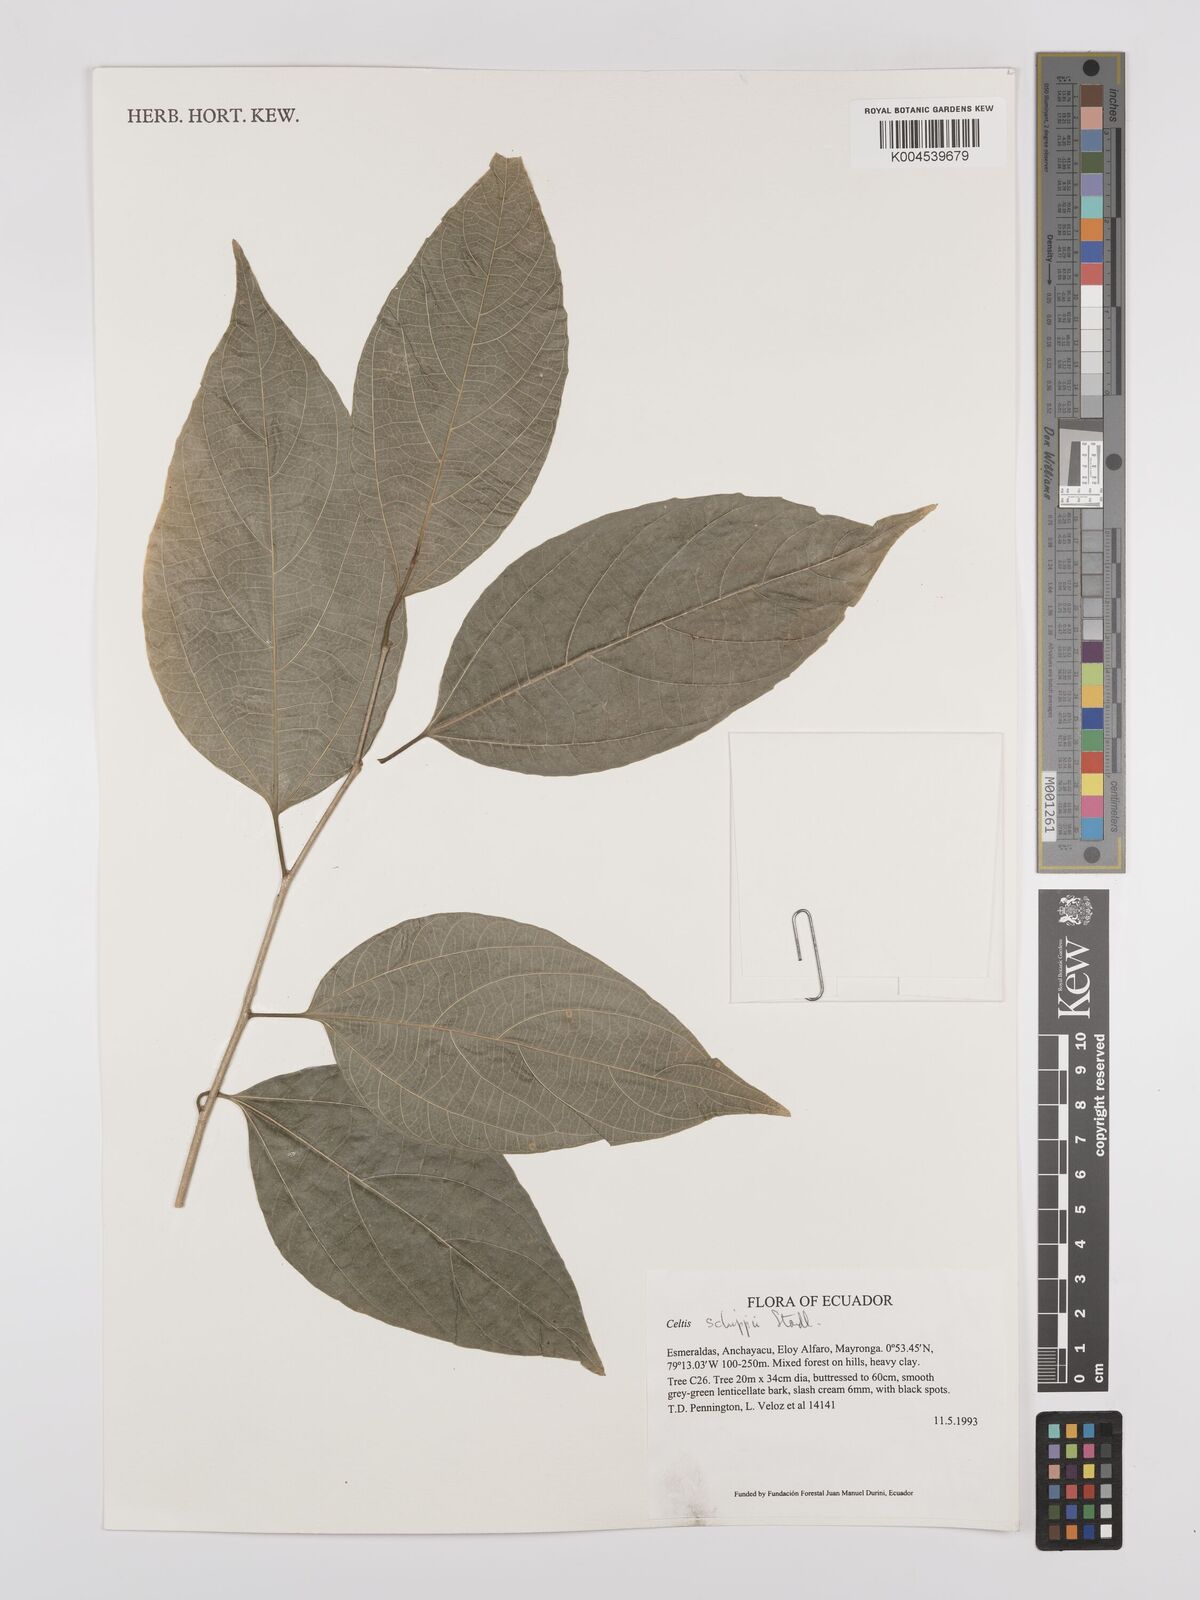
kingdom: Plantae
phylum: Tracheophyta
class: Magnoliopsida
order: Rosales
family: Cannabaceae
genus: Celtis
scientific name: Celtis schippii
